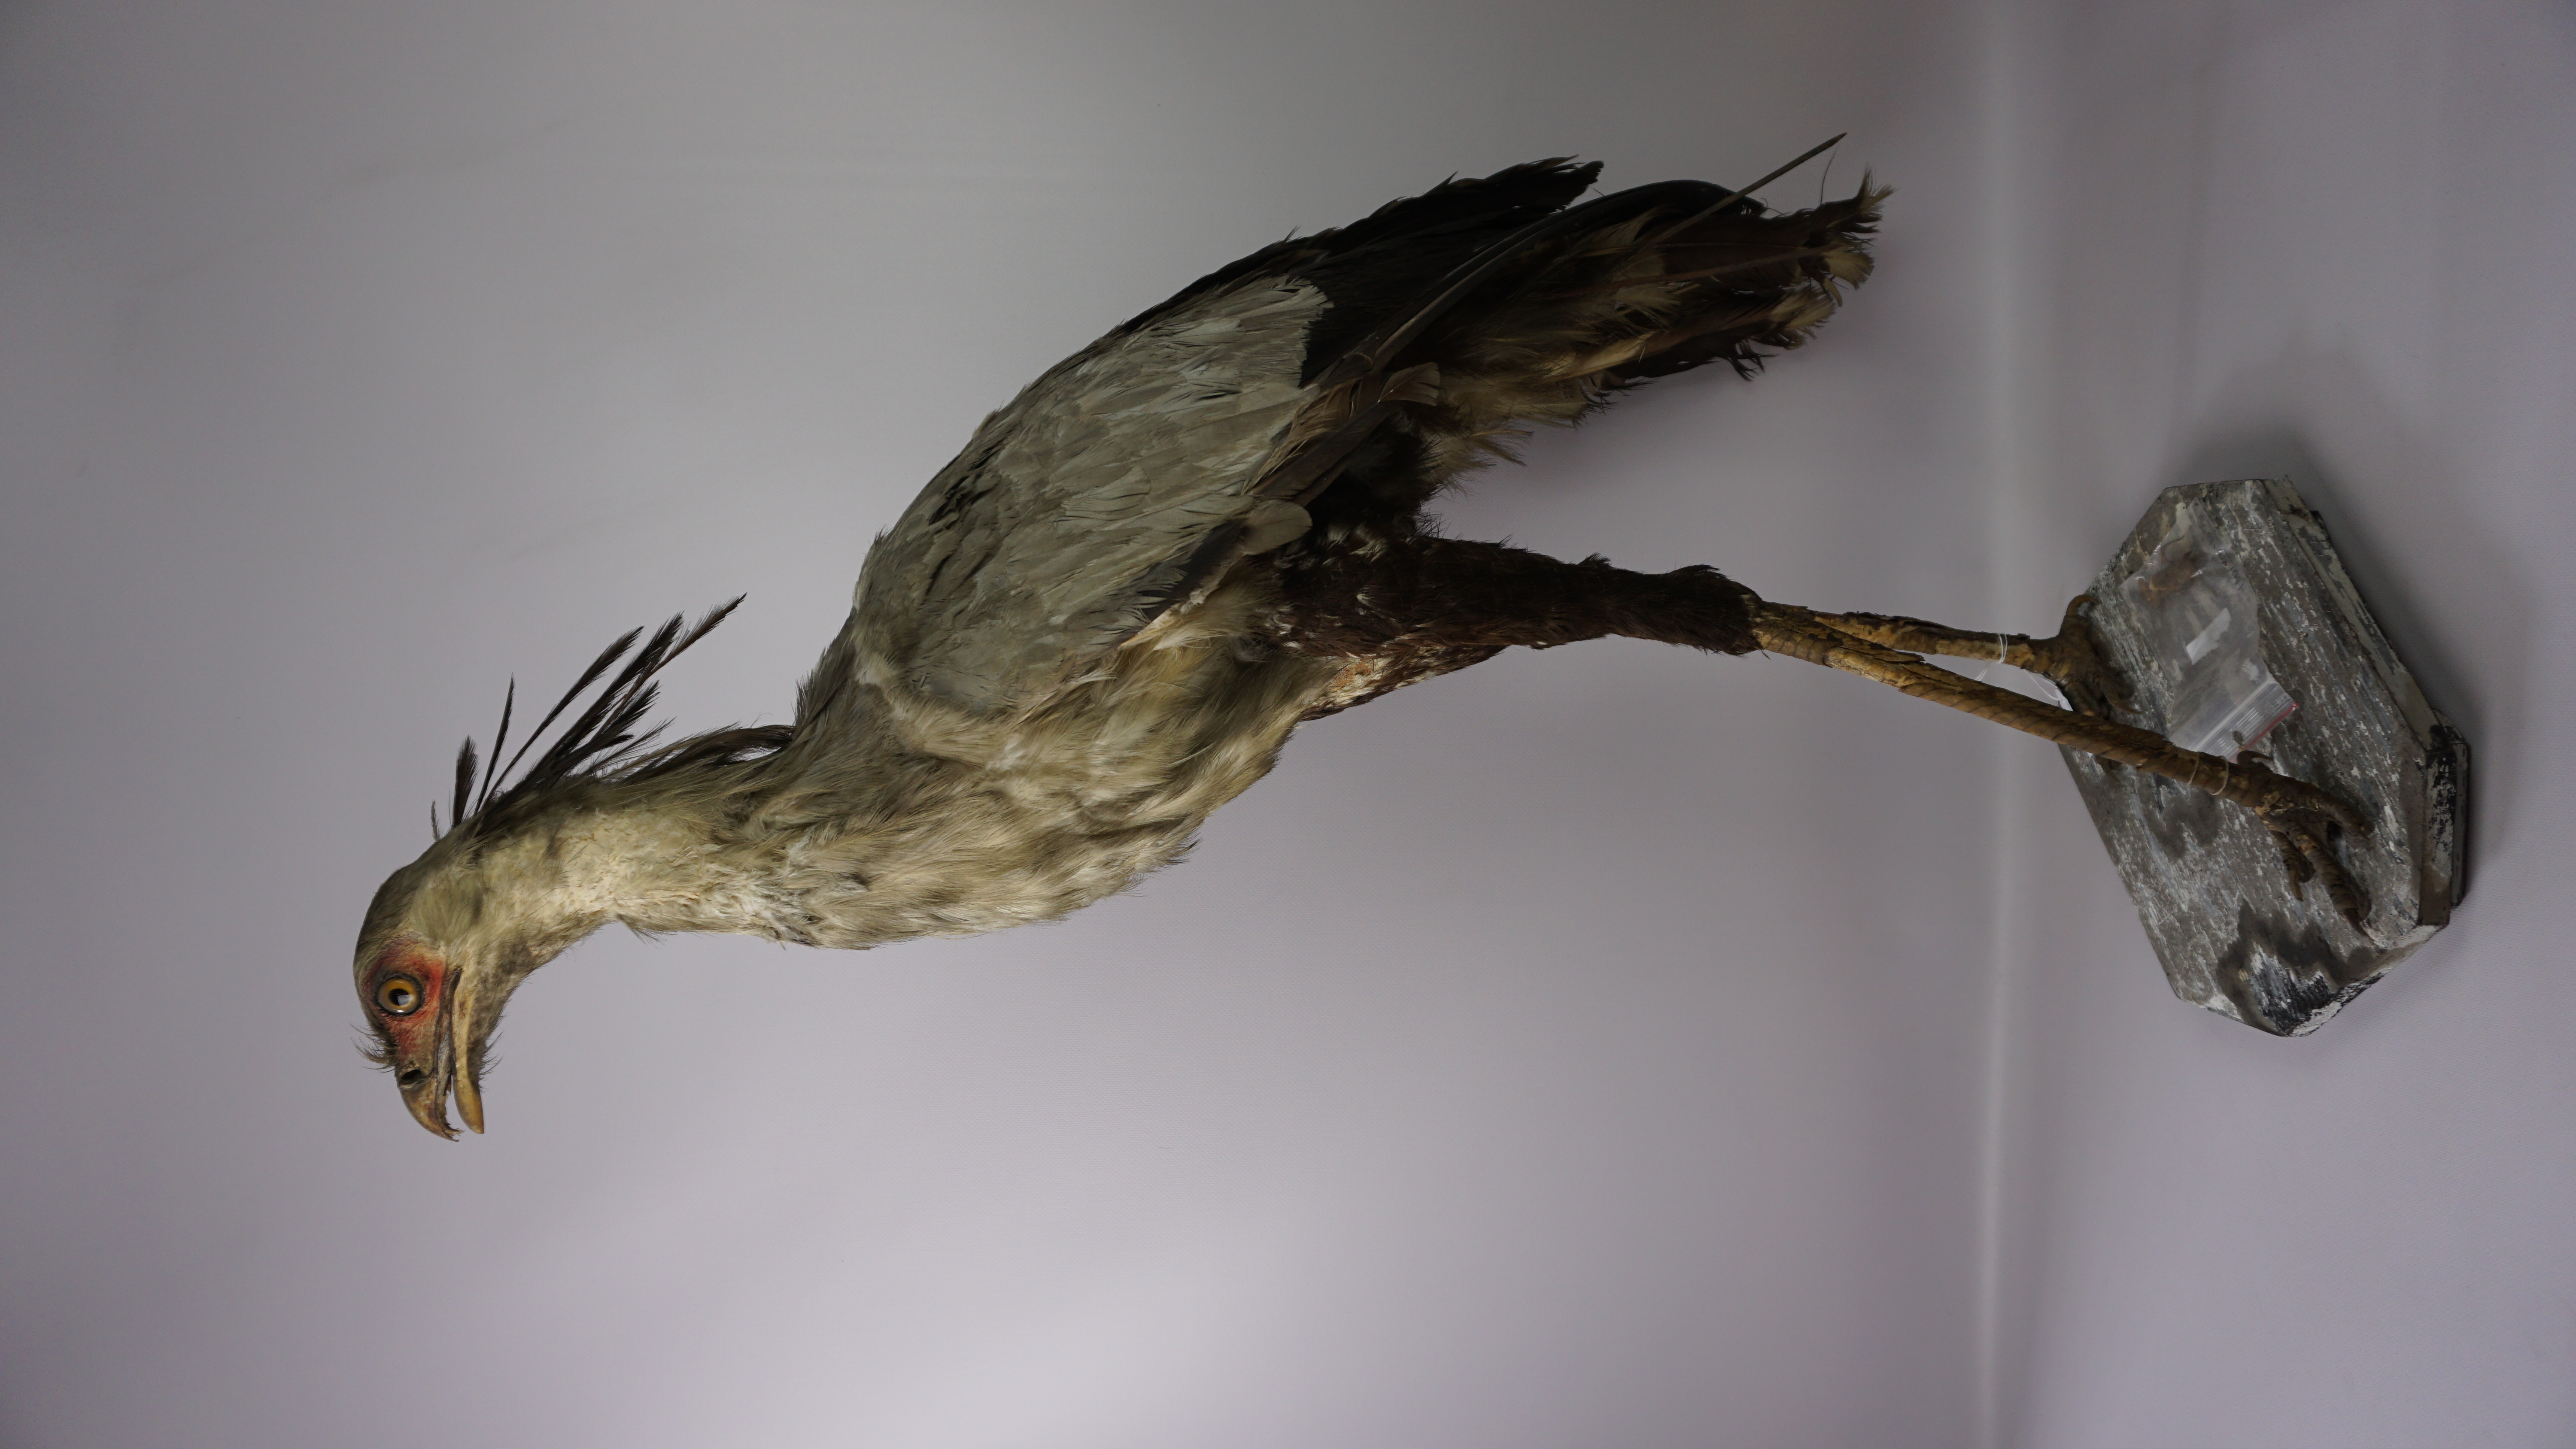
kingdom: Animalia
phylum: Chordata
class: Aves
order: Accipitriformes
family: Sagittariidae
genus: Sagittarius
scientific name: Sagittarius serpentarius
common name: Secretarybird
